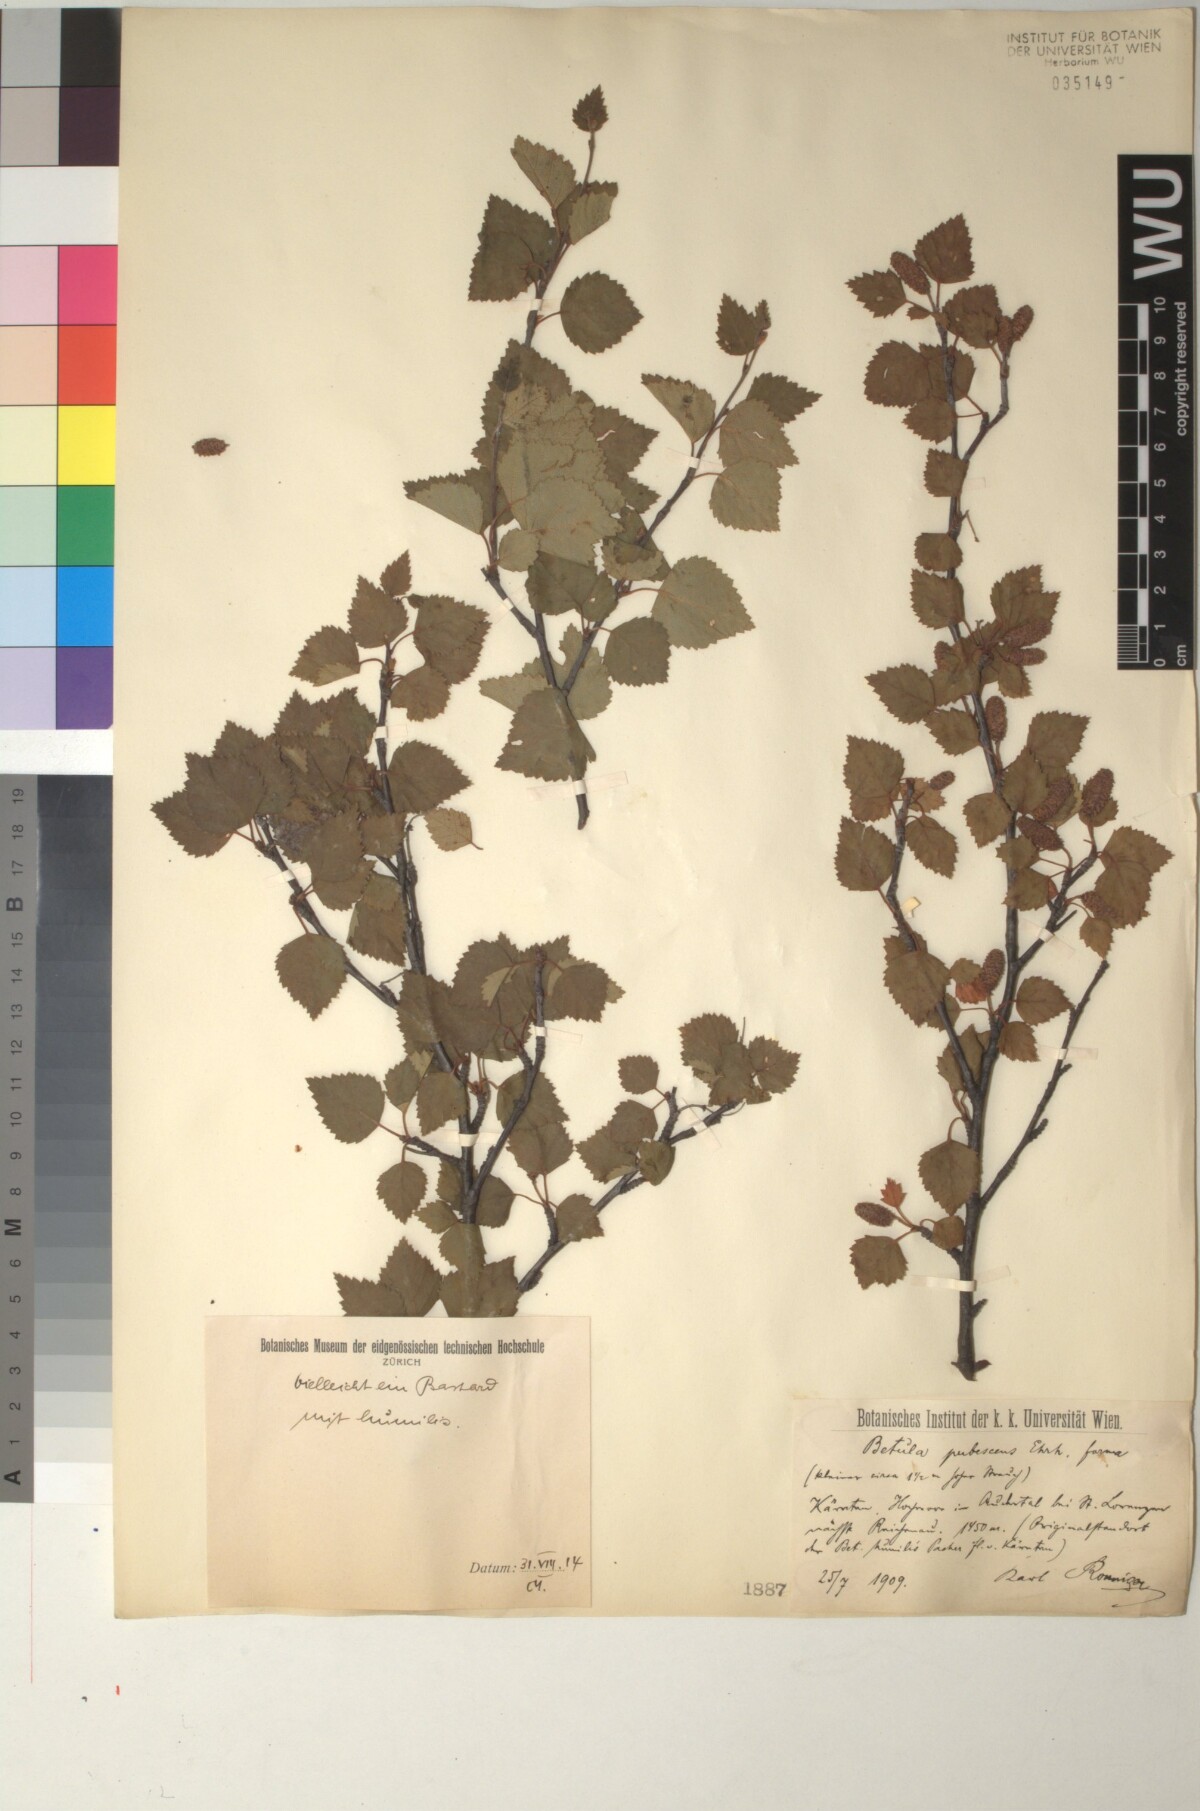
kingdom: Plantae
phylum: Tracheophyta
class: Magnoliopsida
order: Fagales
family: Betulaceae
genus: Betula
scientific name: Betula pubescens
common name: Downy birch
